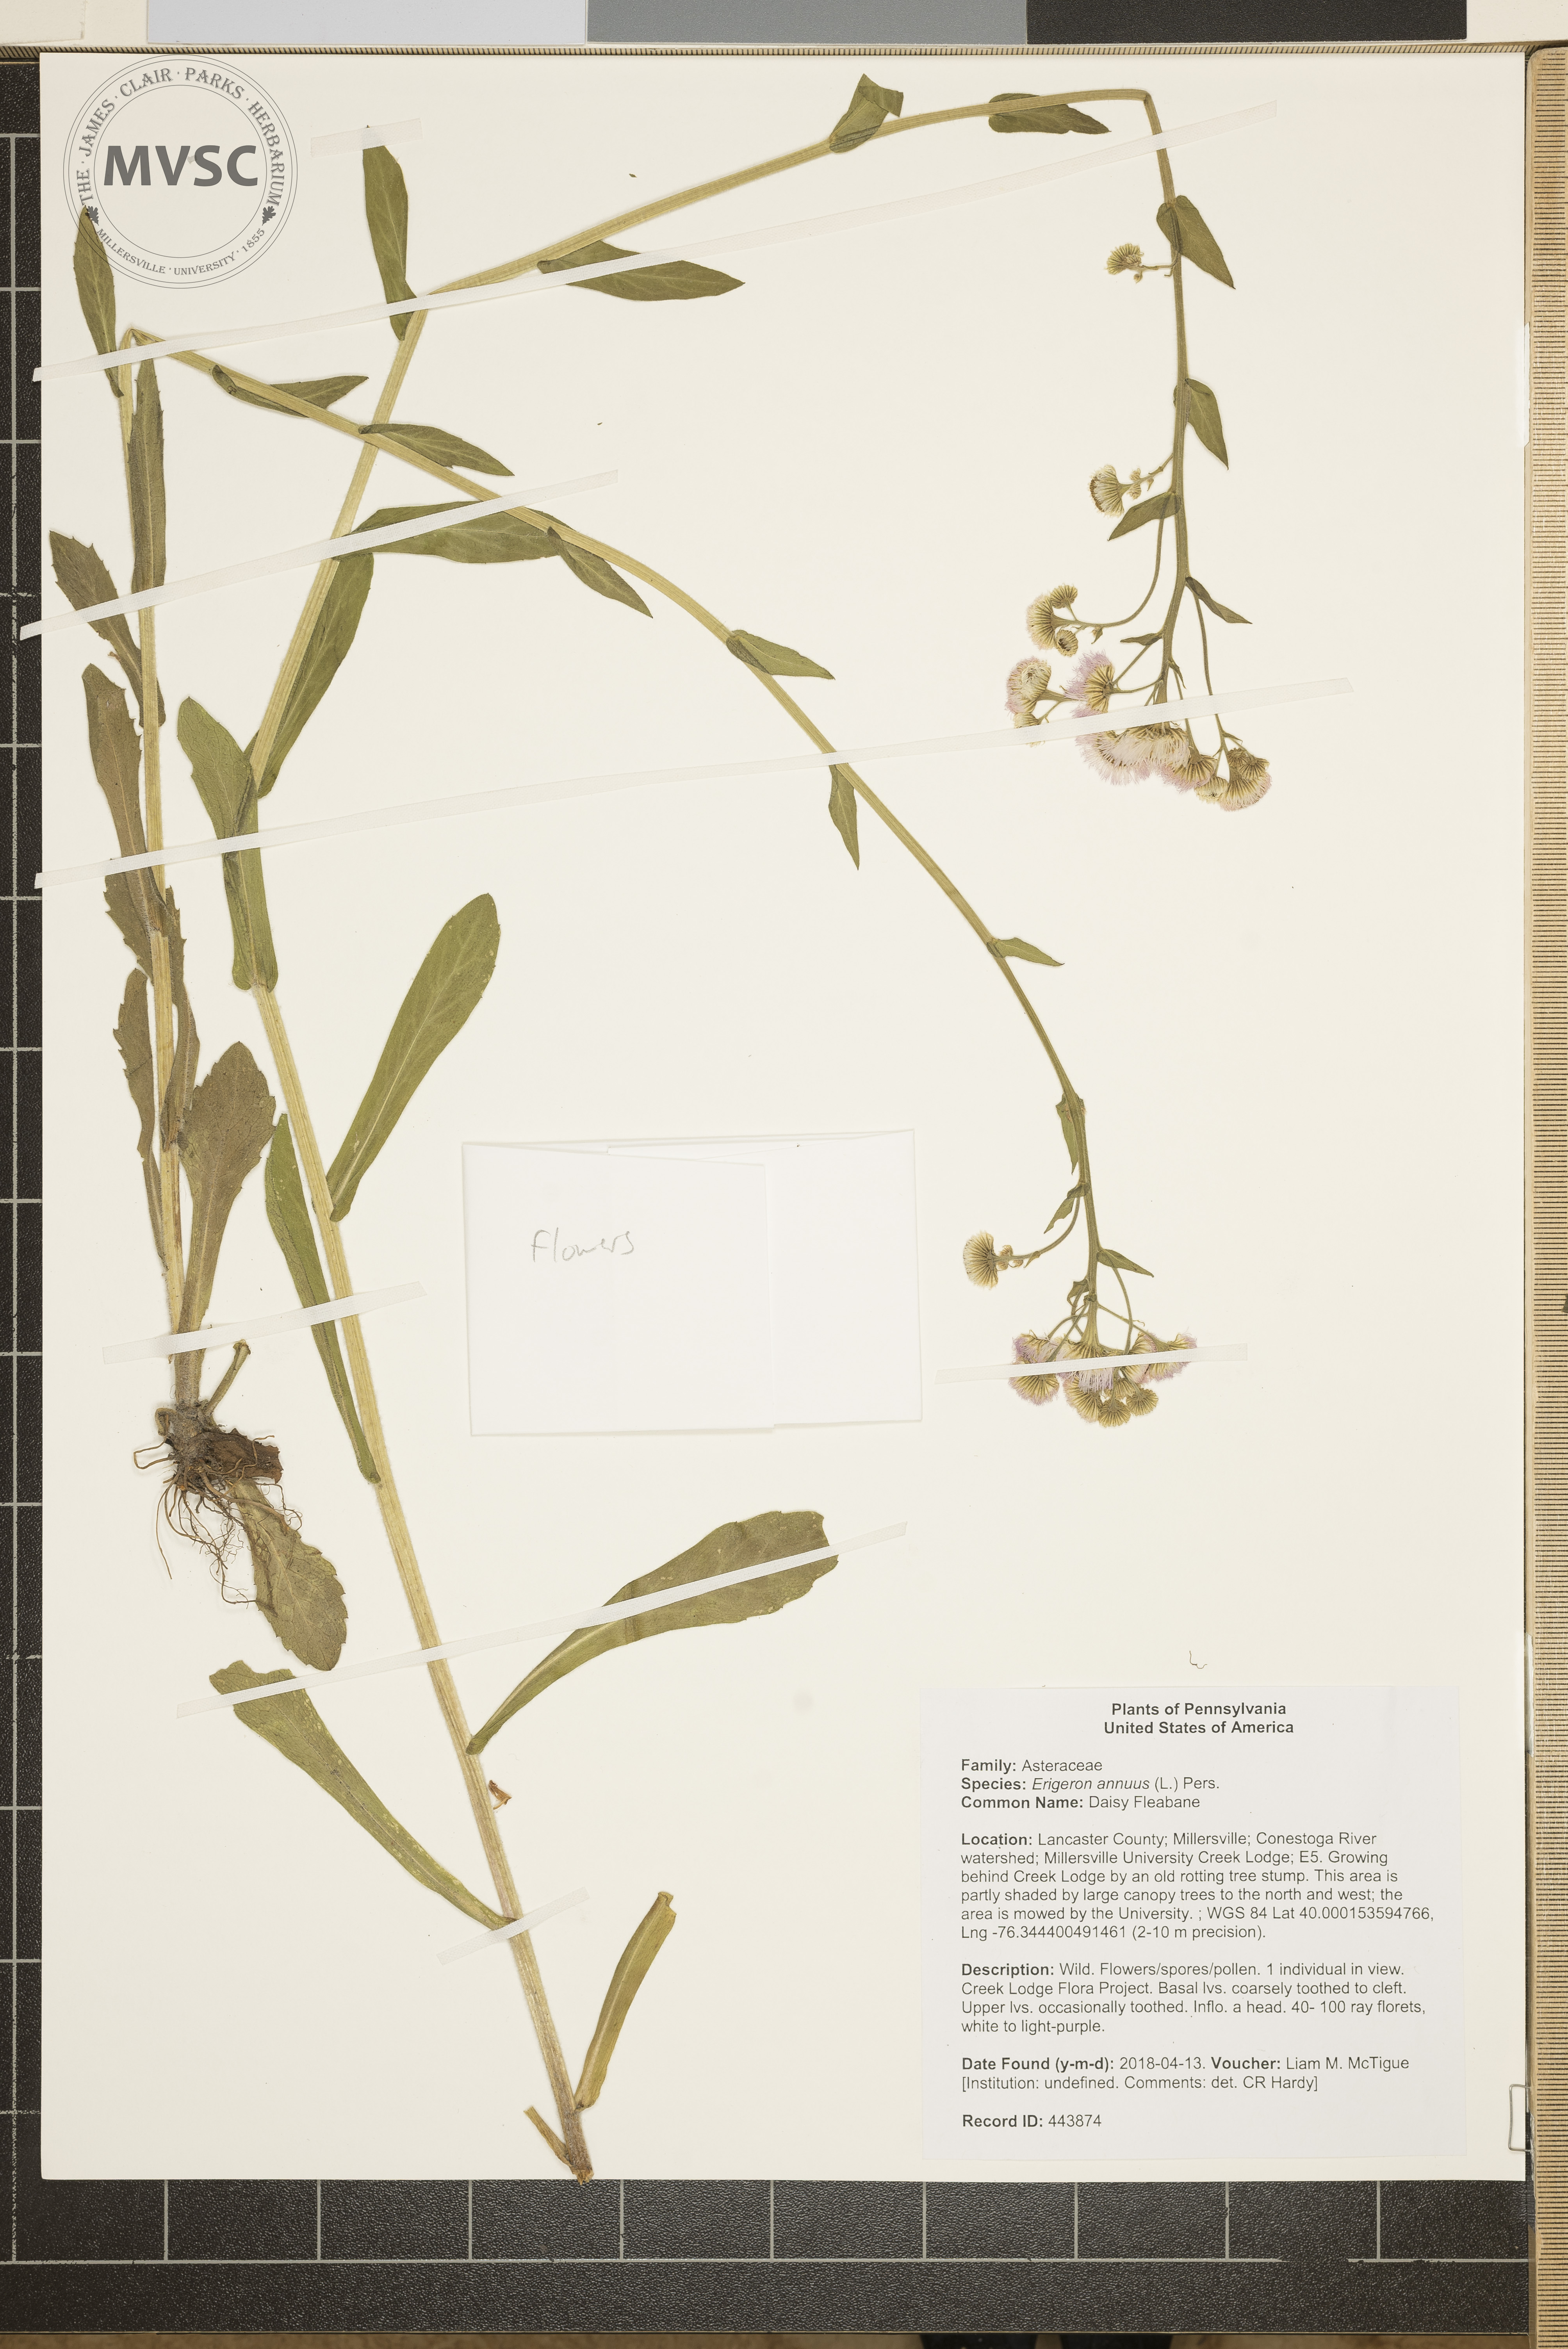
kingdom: Plantae
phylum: Tracheophyta
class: Magnoliopsida
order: Asterales
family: Asteraceae
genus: Erigeron
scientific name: Erigeron annuus
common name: Daisy Fleabane
